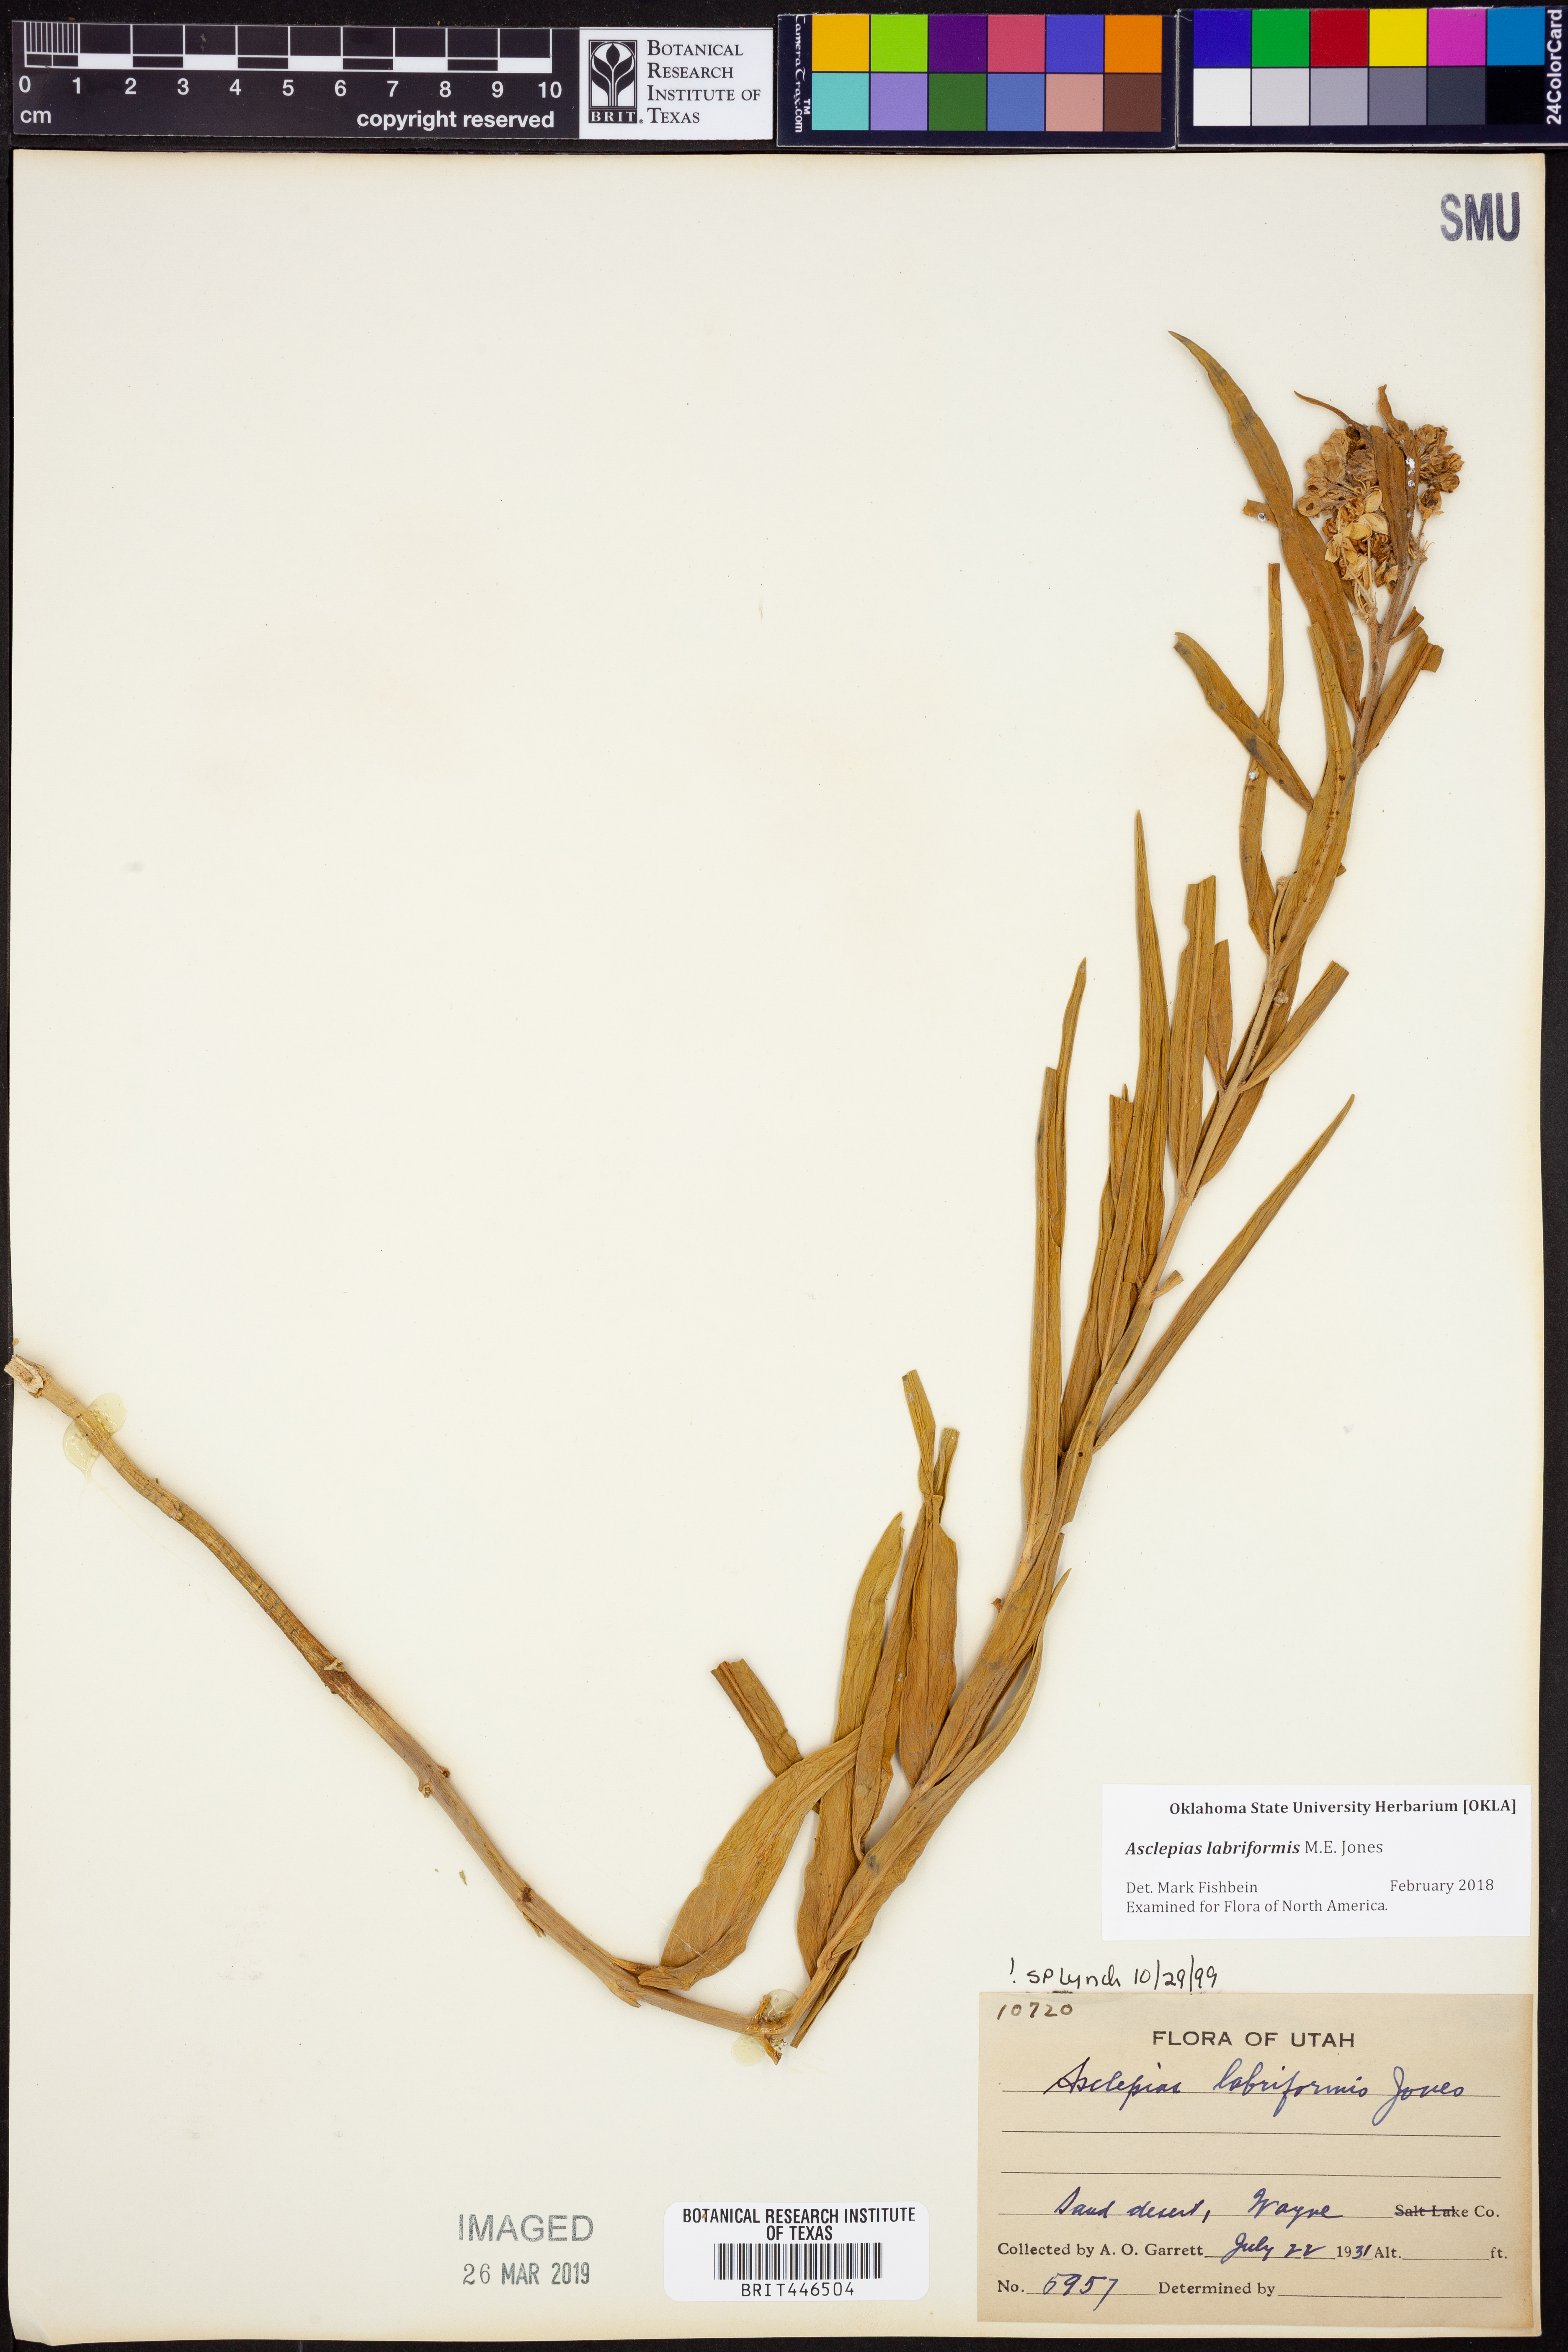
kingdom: Plantae
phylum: Tracheophyta
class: Magnoliopsida
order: Gentianales
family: Apocynaceae
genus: Asclepias
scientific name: Asclepias labriformis
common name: Labriformis milkweed
